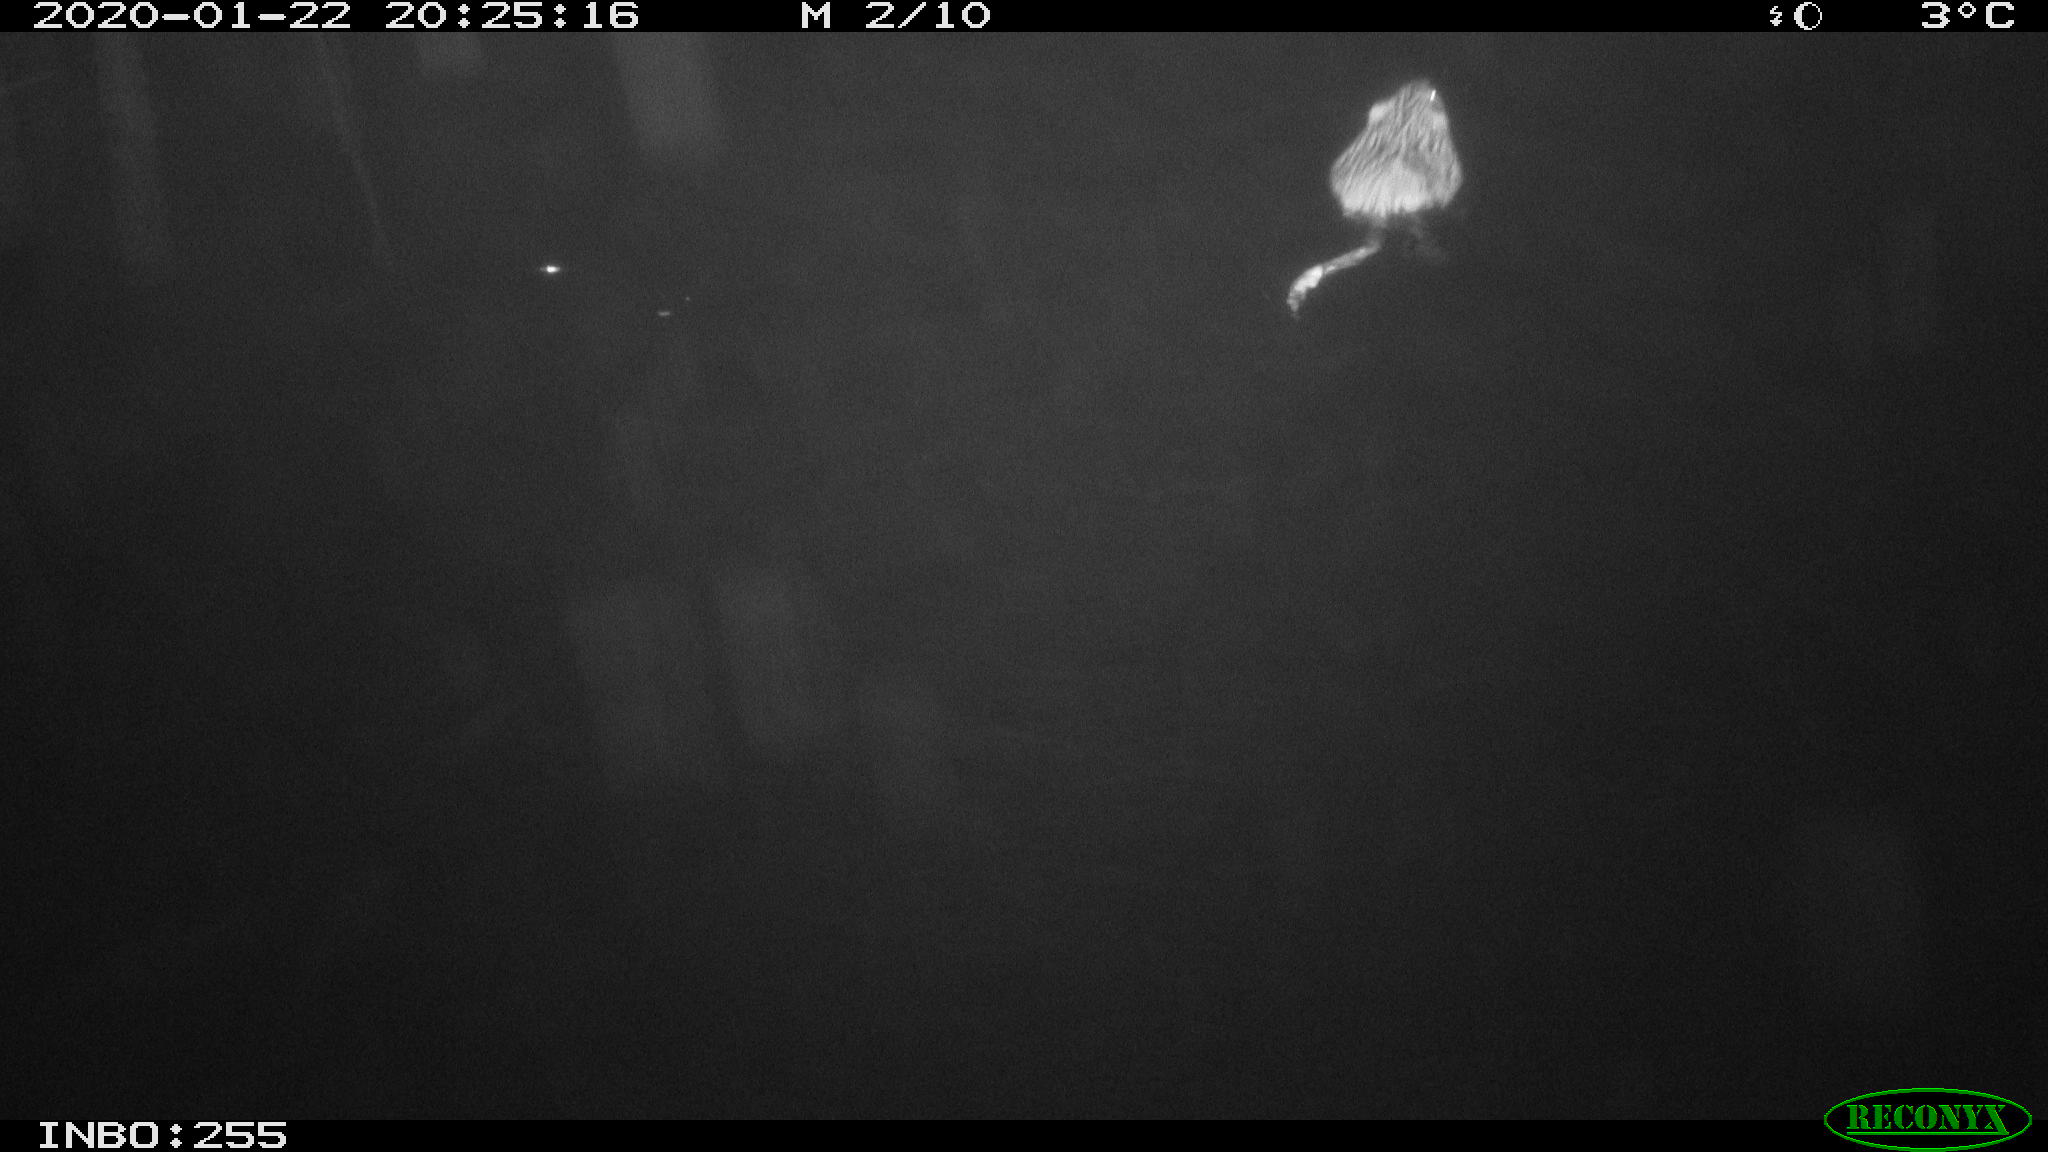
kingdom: Animalia
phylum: Chordata
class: Mammalia
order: Rodentia
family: Cricetidae
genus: Ondatra
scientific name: Ondatra zibethicus
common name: Muskrat
